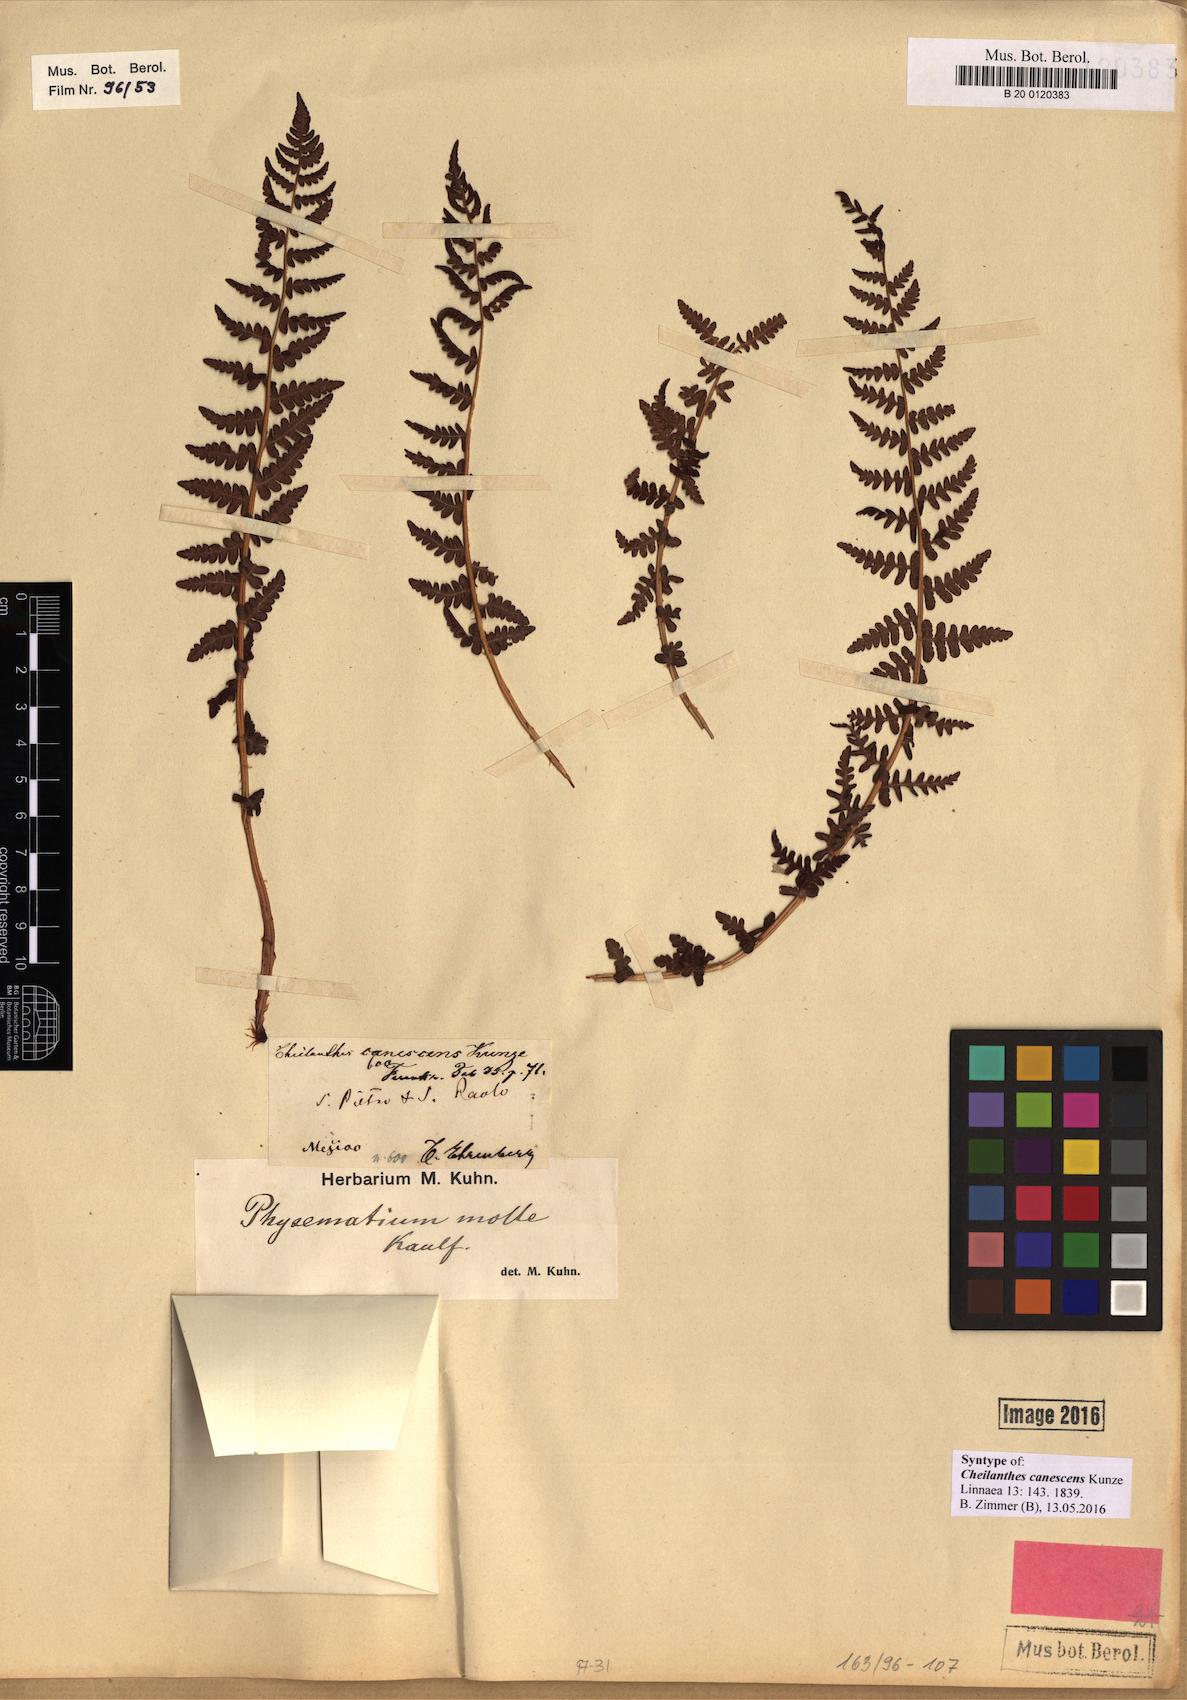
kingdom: Plantae
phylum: Tracheophyta
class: Polypodiopsida
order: Polypodiales
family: Woodsiaceae
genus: Physematium
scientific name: Physematium molle
